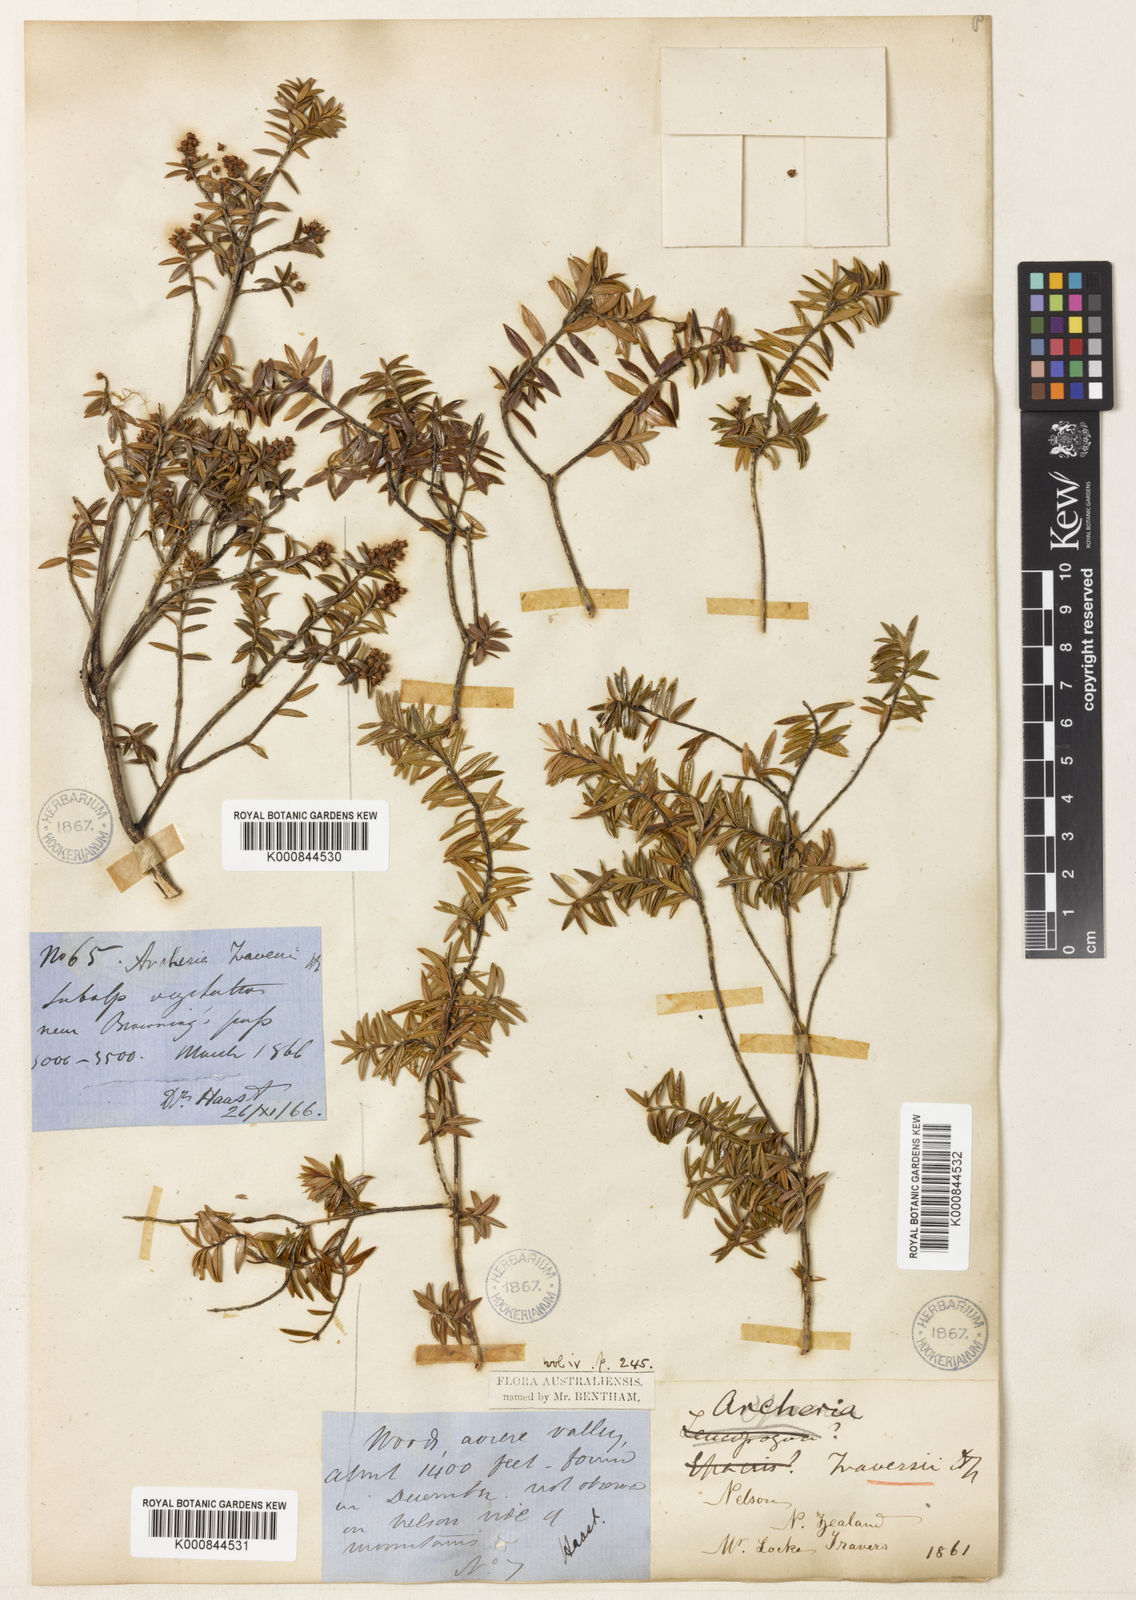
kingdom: Plantae
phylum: Tracheophyta
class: Magnoliopsida
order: Ericales
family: Ericaceae
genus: Archeria
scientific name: Archeria traversii
